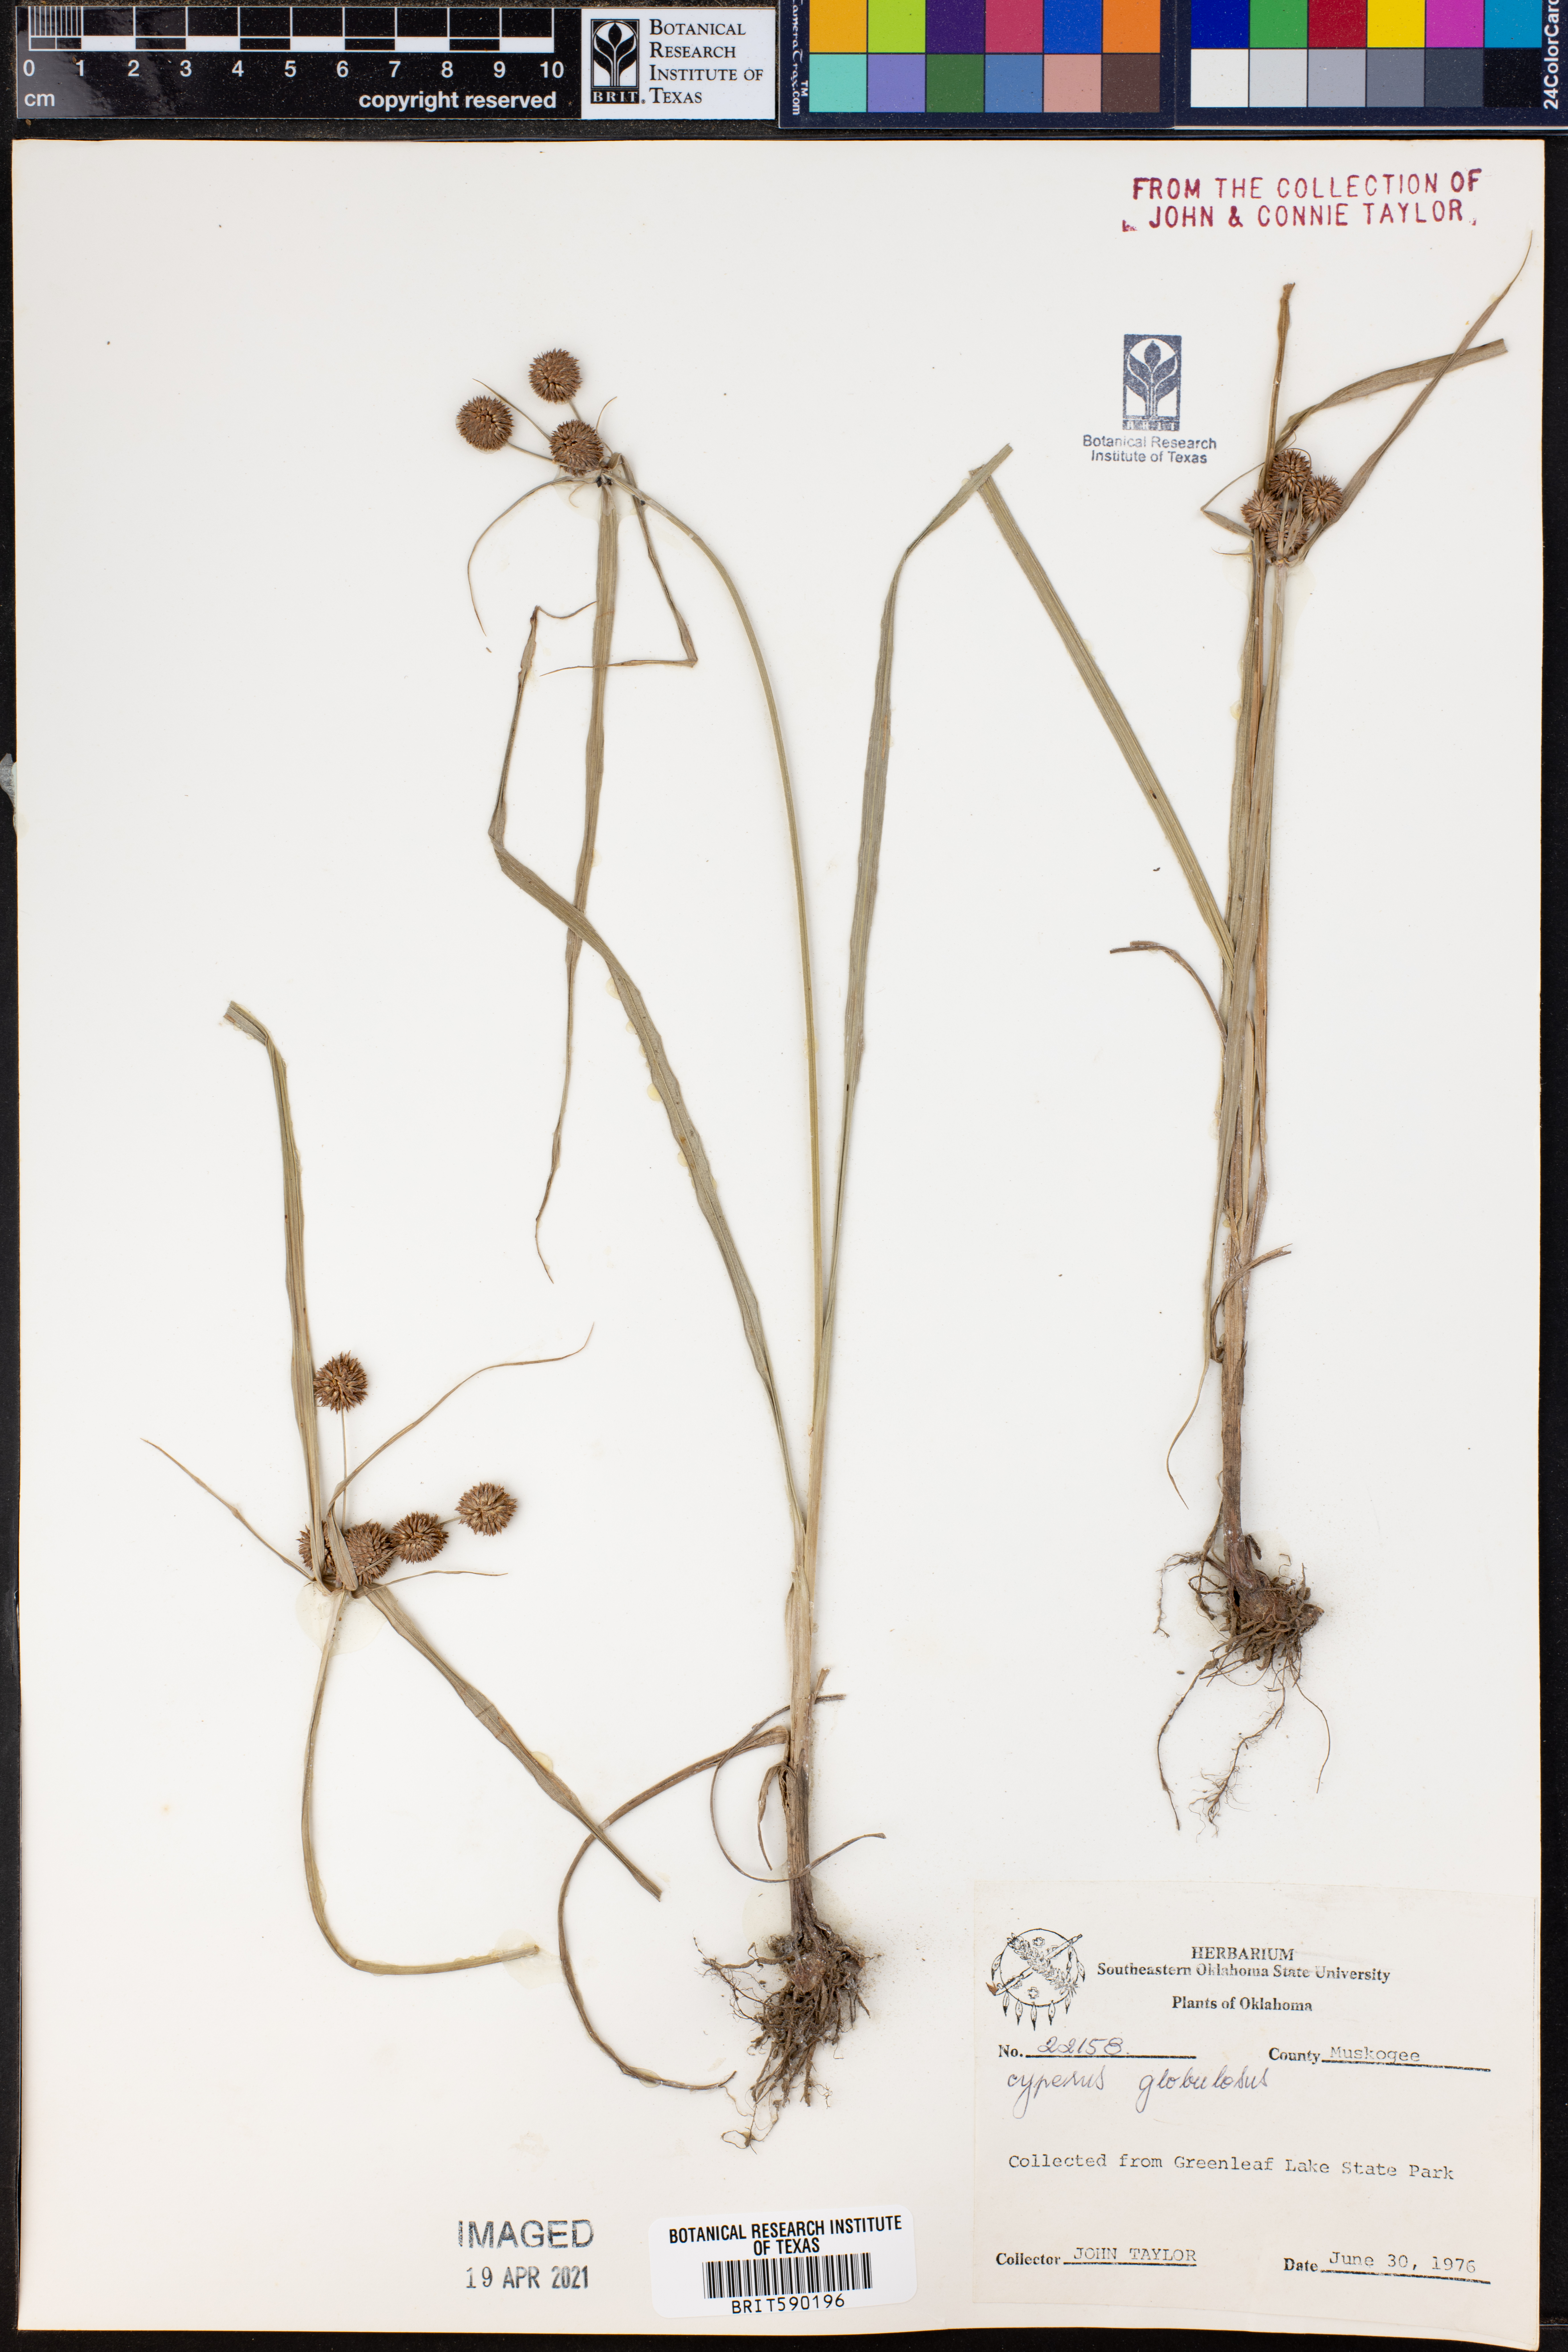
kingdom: Plantae
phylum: Tracheophyta
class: Liliopsida
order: Poales
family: Cyperaceae
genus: Cyperus
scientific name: Cyperus luzulae
